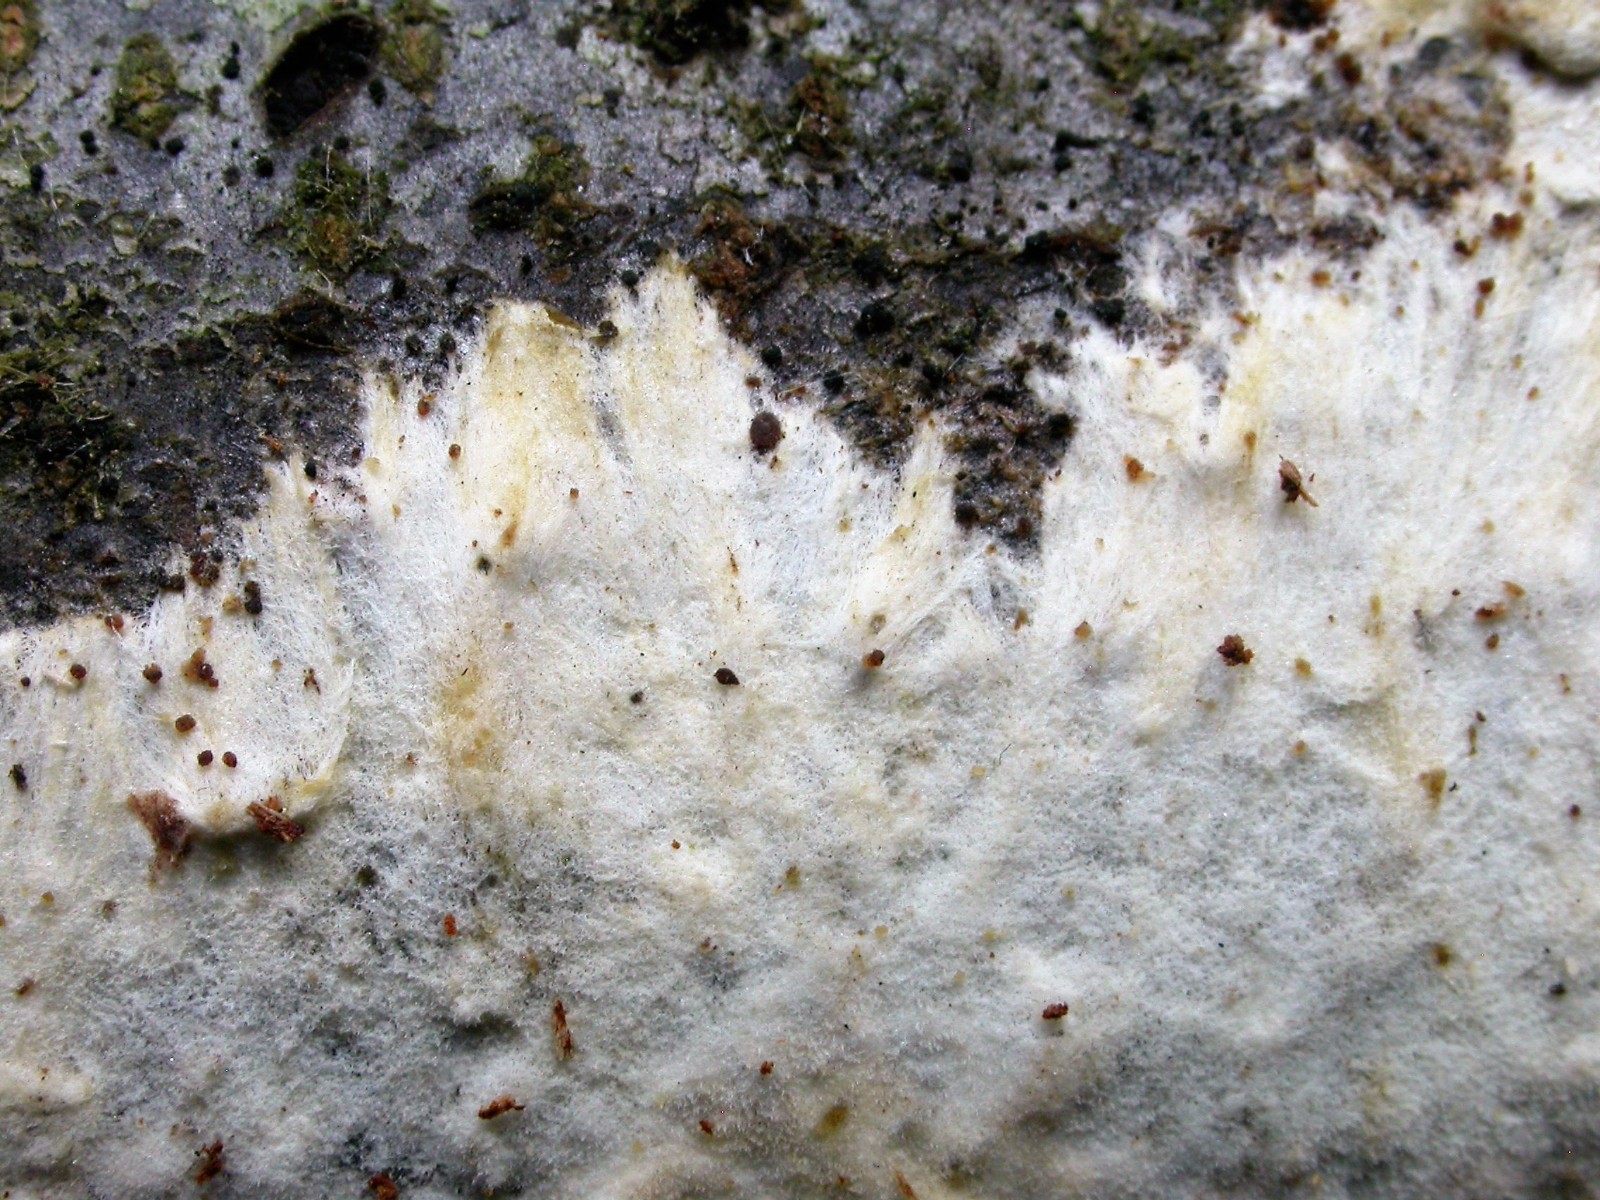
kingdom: Fungi
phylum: Basidiomycota
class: Agaricomycetes
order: Polyporales
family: Phanerochaetaceae
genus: Phanerochaete
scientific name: Phanerochaete sordida
